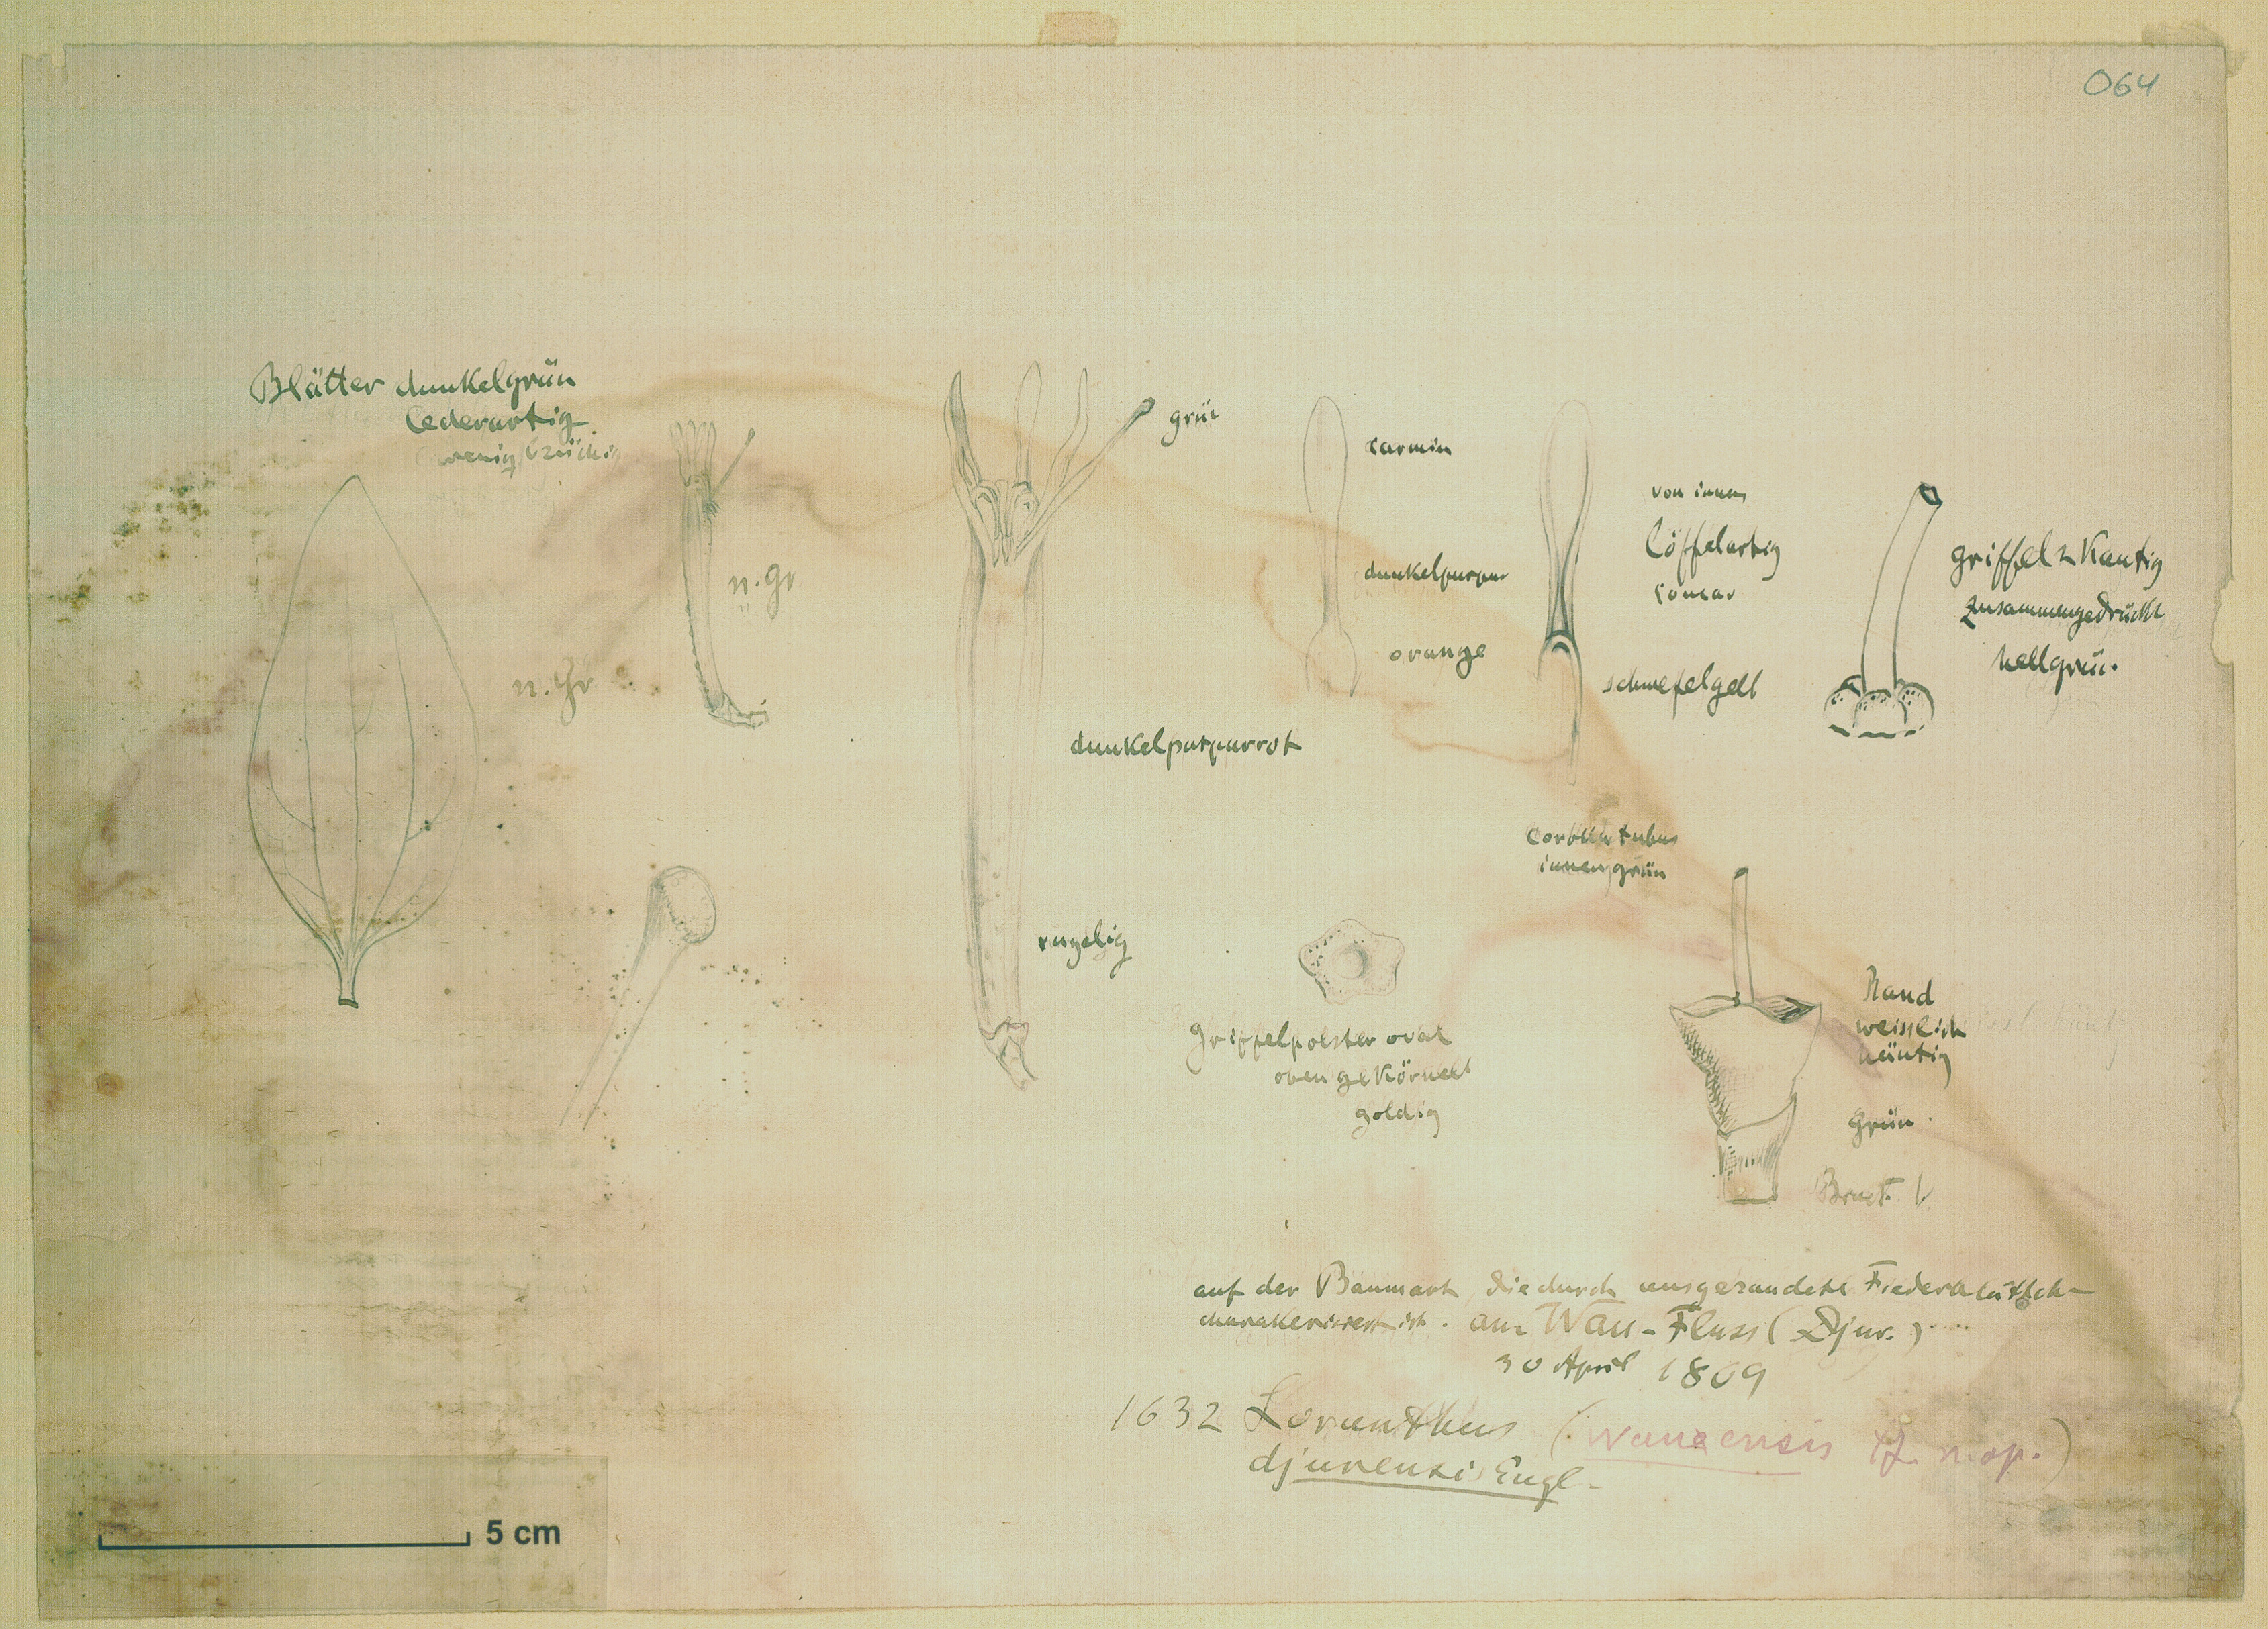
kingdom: Plantae
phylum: Tracheophyta
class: Magnoliopsida
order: Santalales
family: Loranthaceae
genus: Agelanthus
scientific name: Agelanthus djurensis
